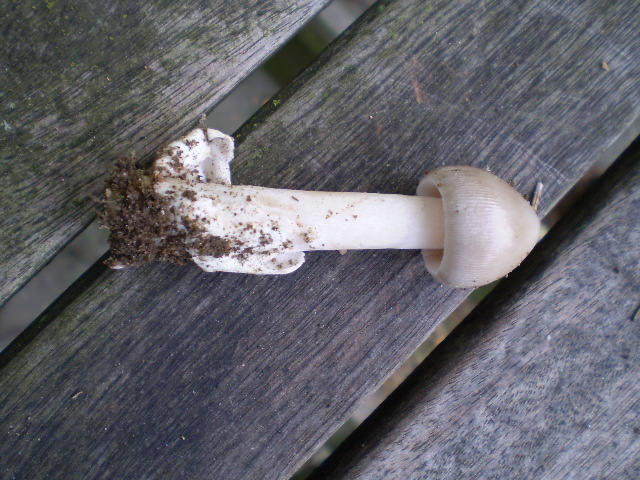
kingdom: Fungi
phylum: Basidiomycota
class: Agaricomycetes
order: Agaricales
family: Amanitaceae
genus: Amanita
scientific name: Amanita vaginata
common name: grå kam-fluesvamp
